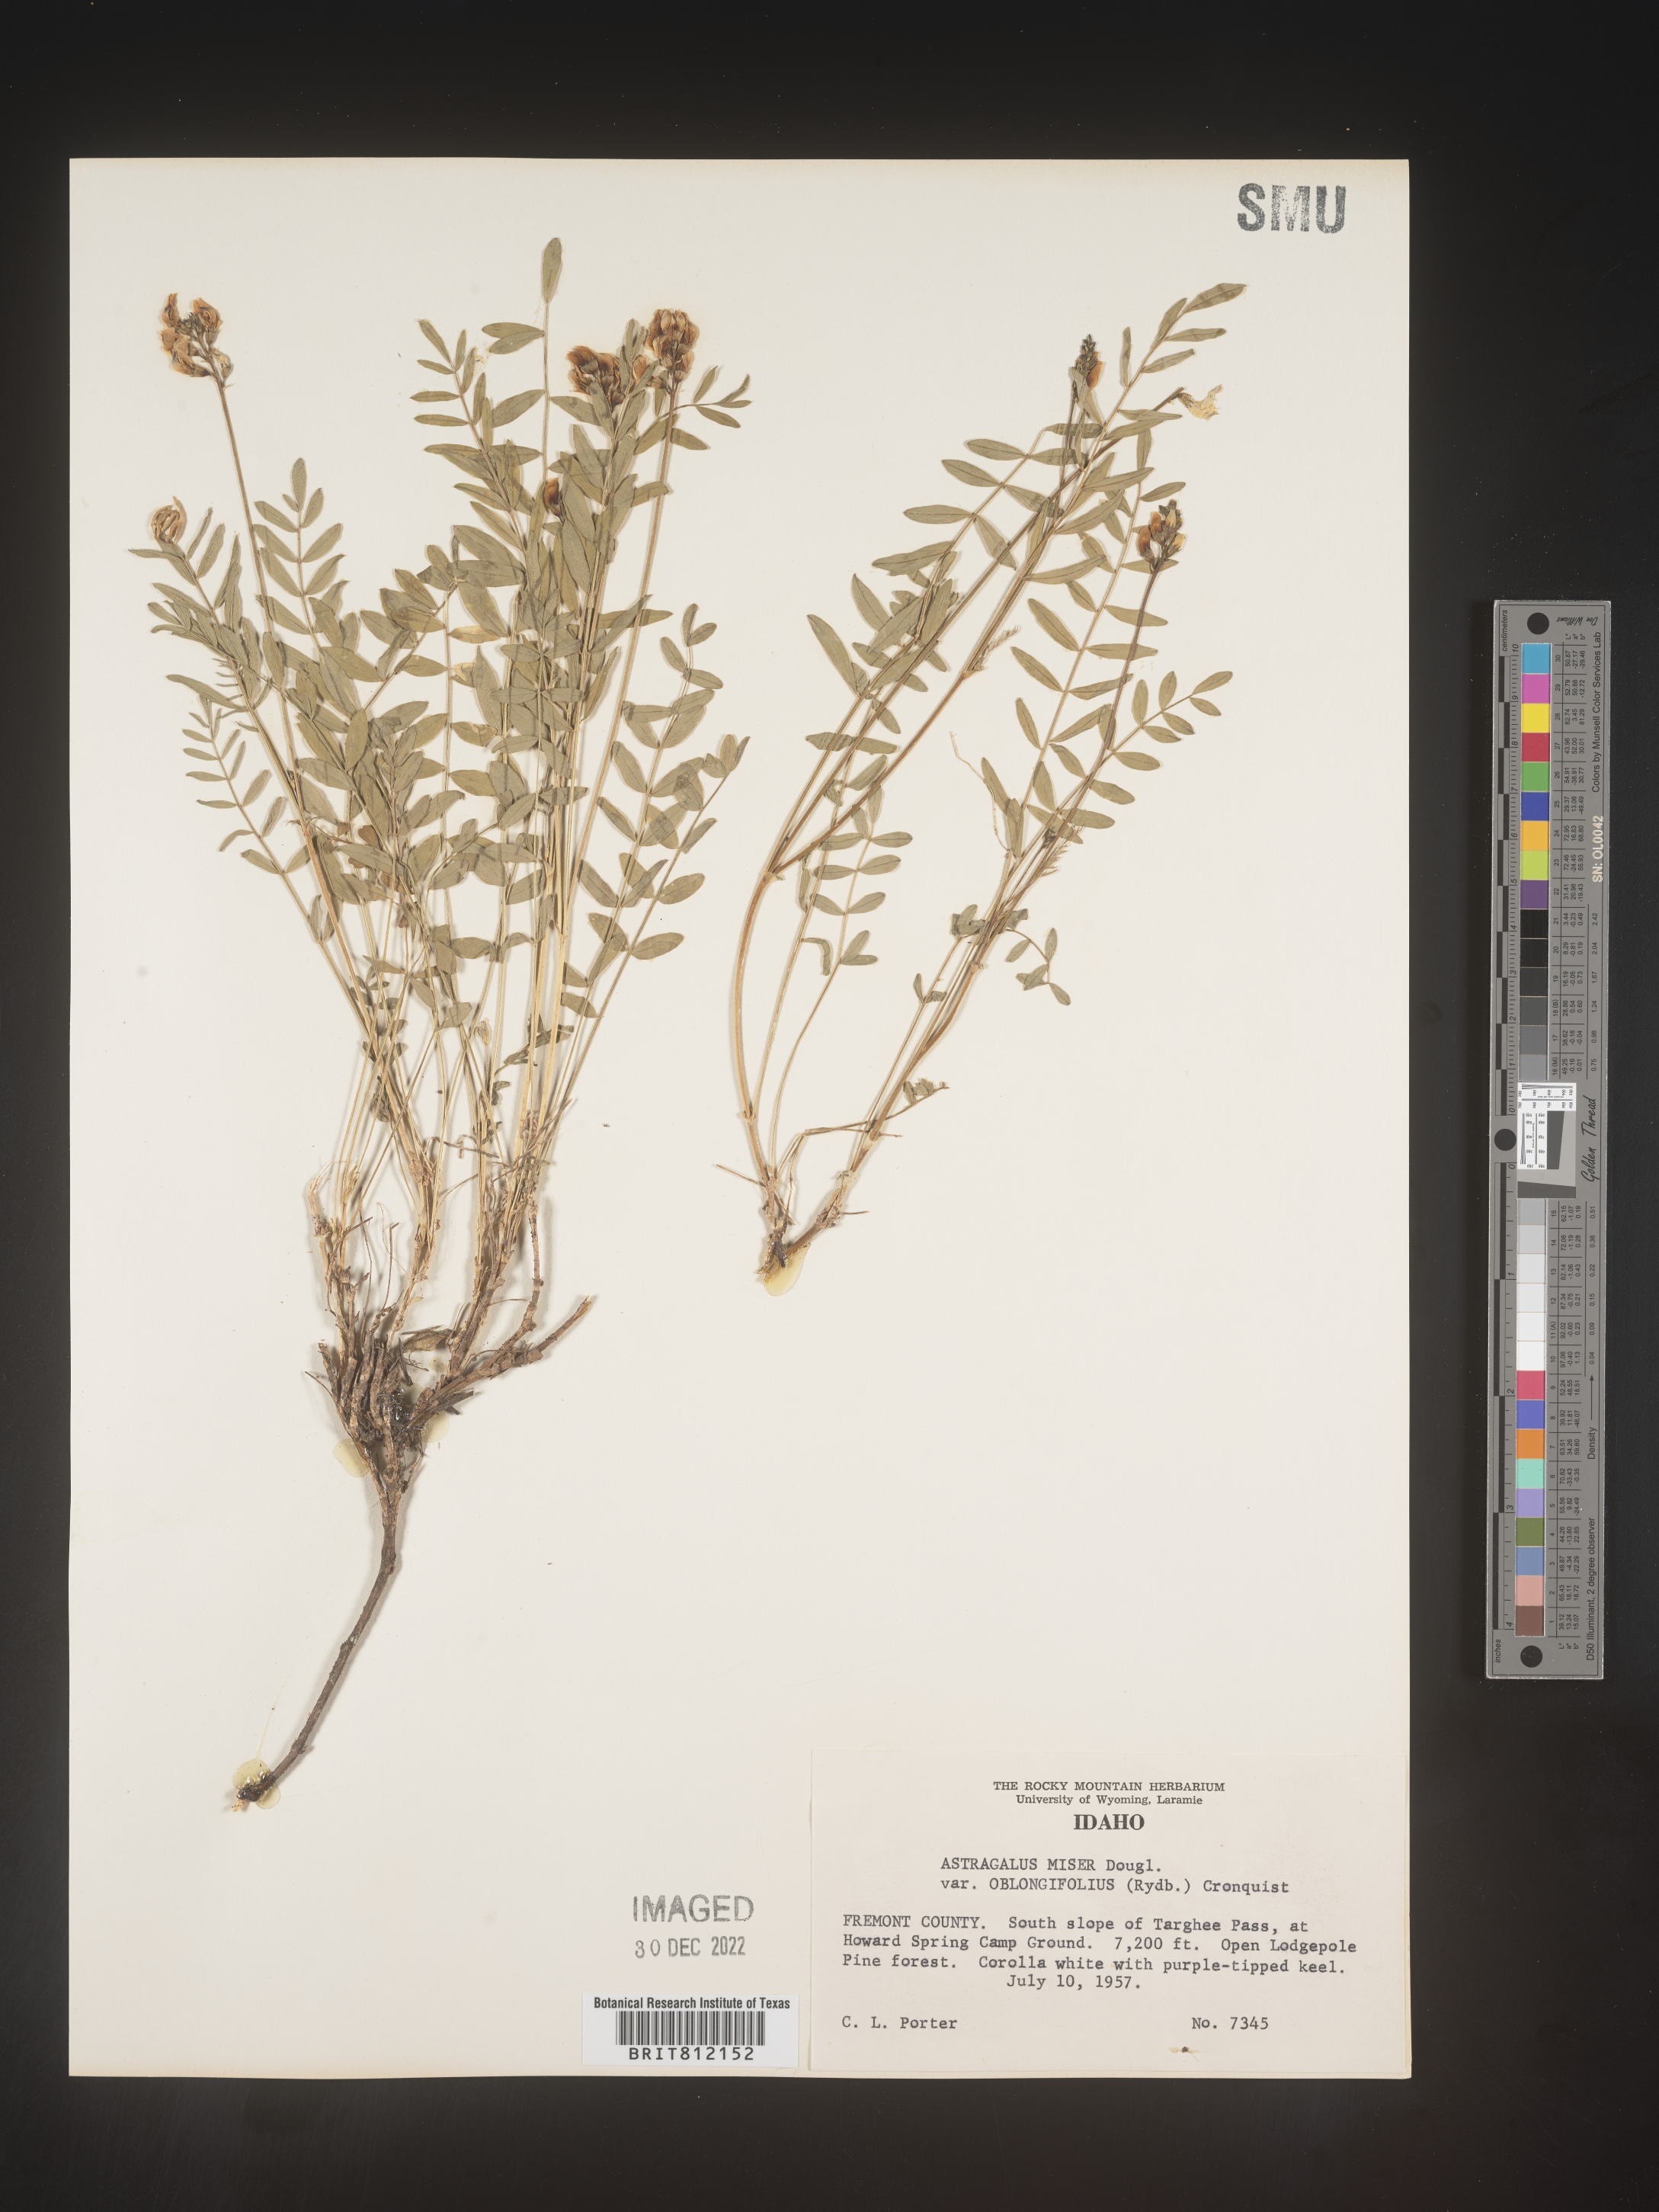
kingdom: Plantae
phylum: Tracheophyta
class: Magnoliopsida
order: Fabales
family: Fabaceae
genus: Astragalus
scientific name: Astragalus miser
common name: Timber milkvetch
